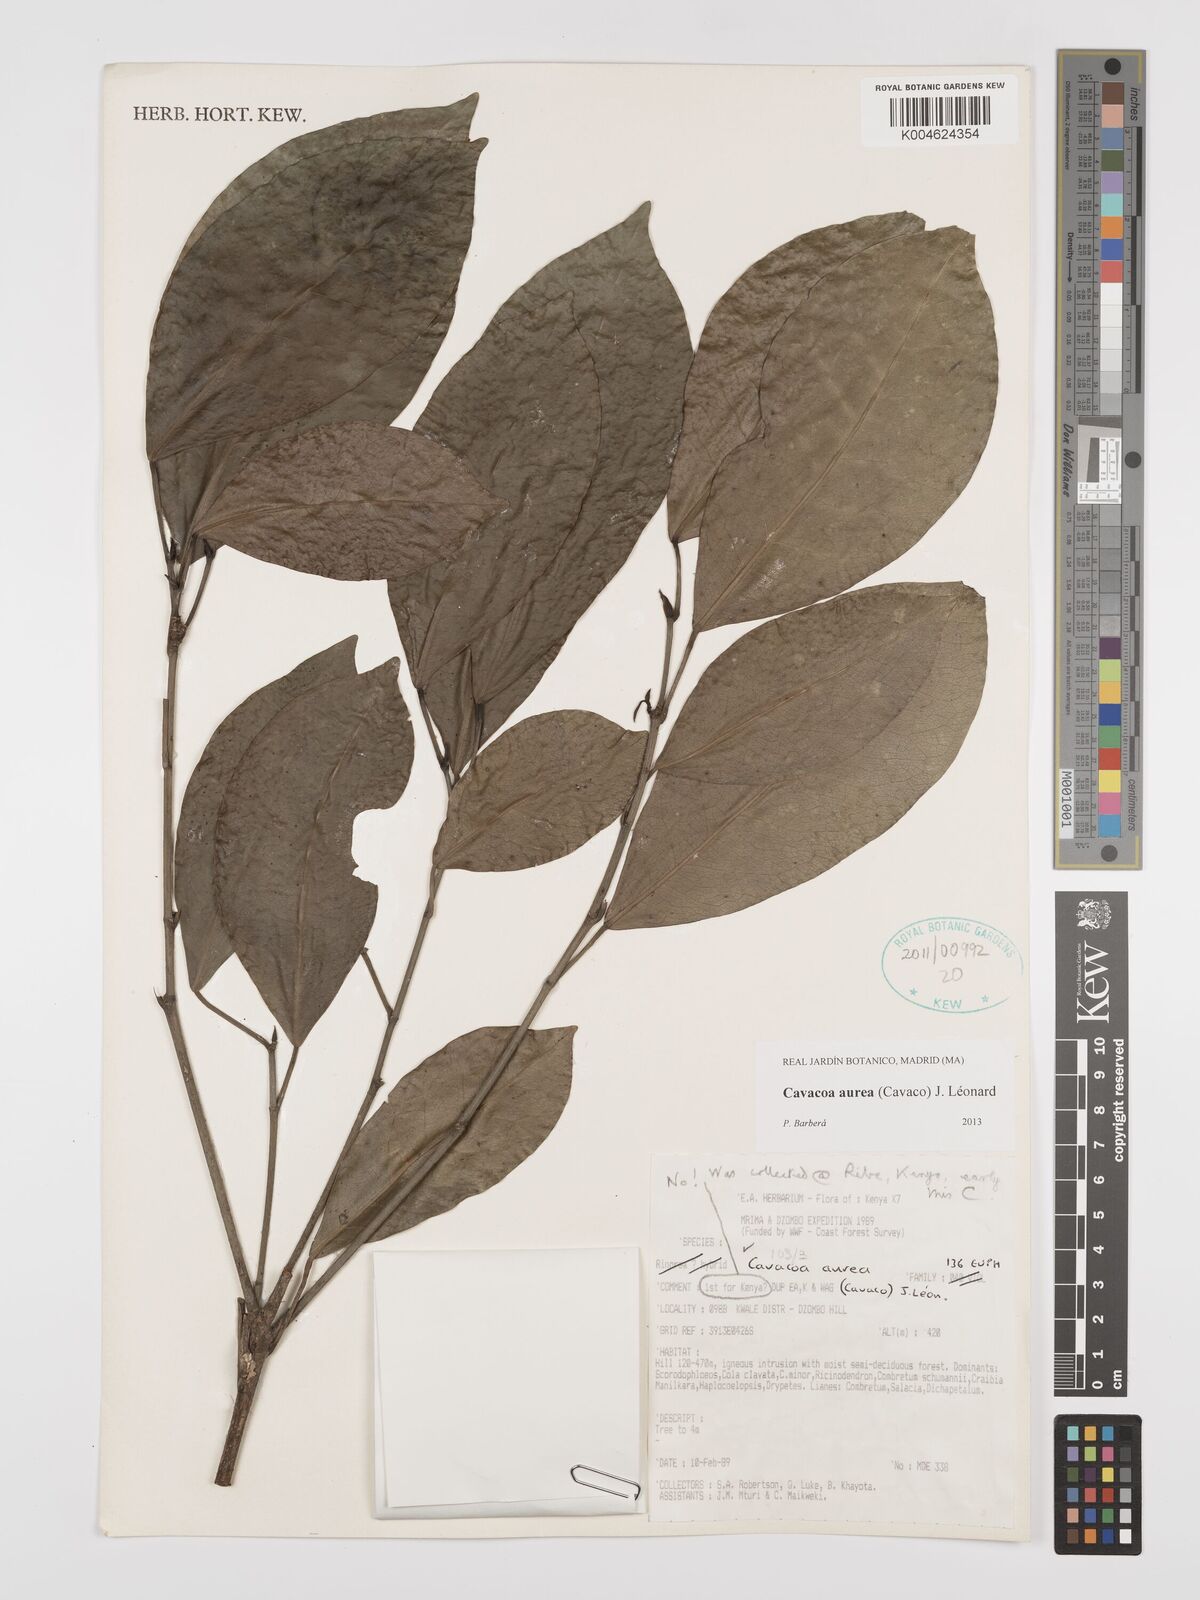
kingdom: Plantae
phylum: Tracheophyta
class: Magnoliopsida
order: Malpighiales
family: Euphorbiaceae
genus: Cavacoa
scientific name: Cavacoa aurea
